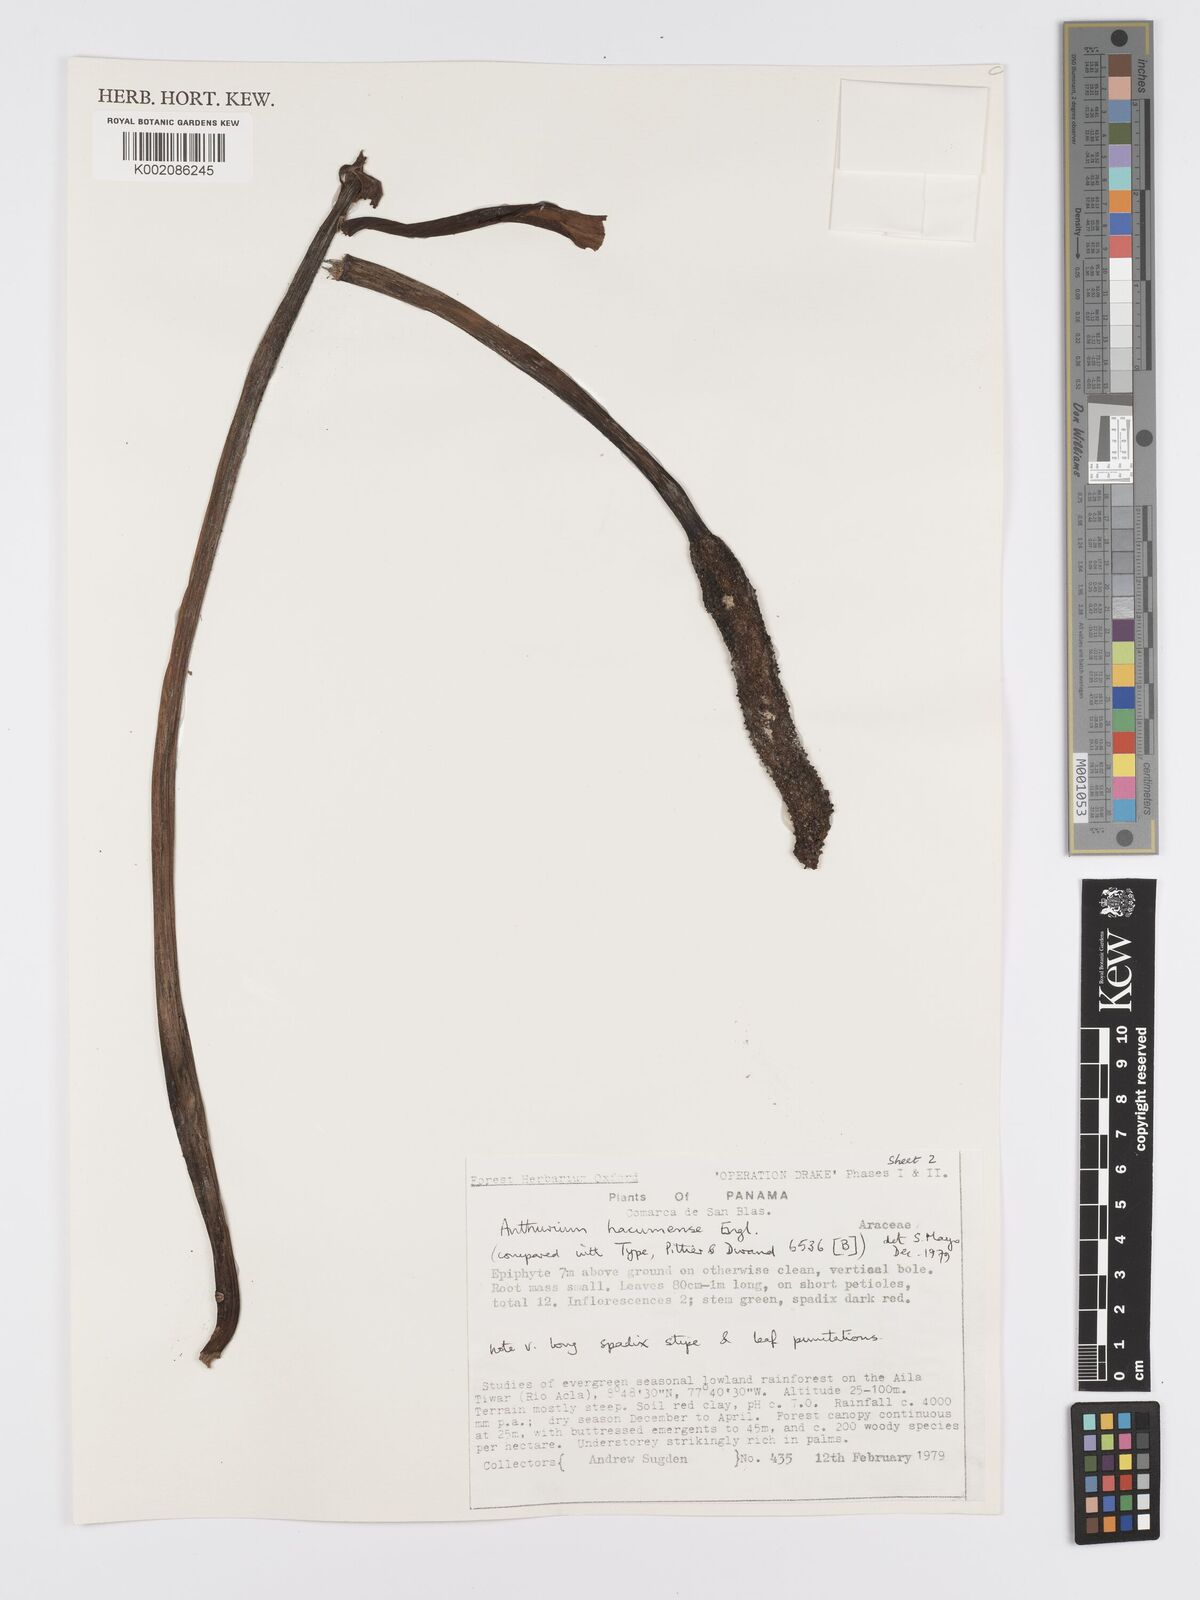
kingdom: Plantae
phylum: Tracheophyta
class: Liliopsida
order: Alismatales
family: Araceae
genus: Anthurium
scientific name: Anthurium hacumense
